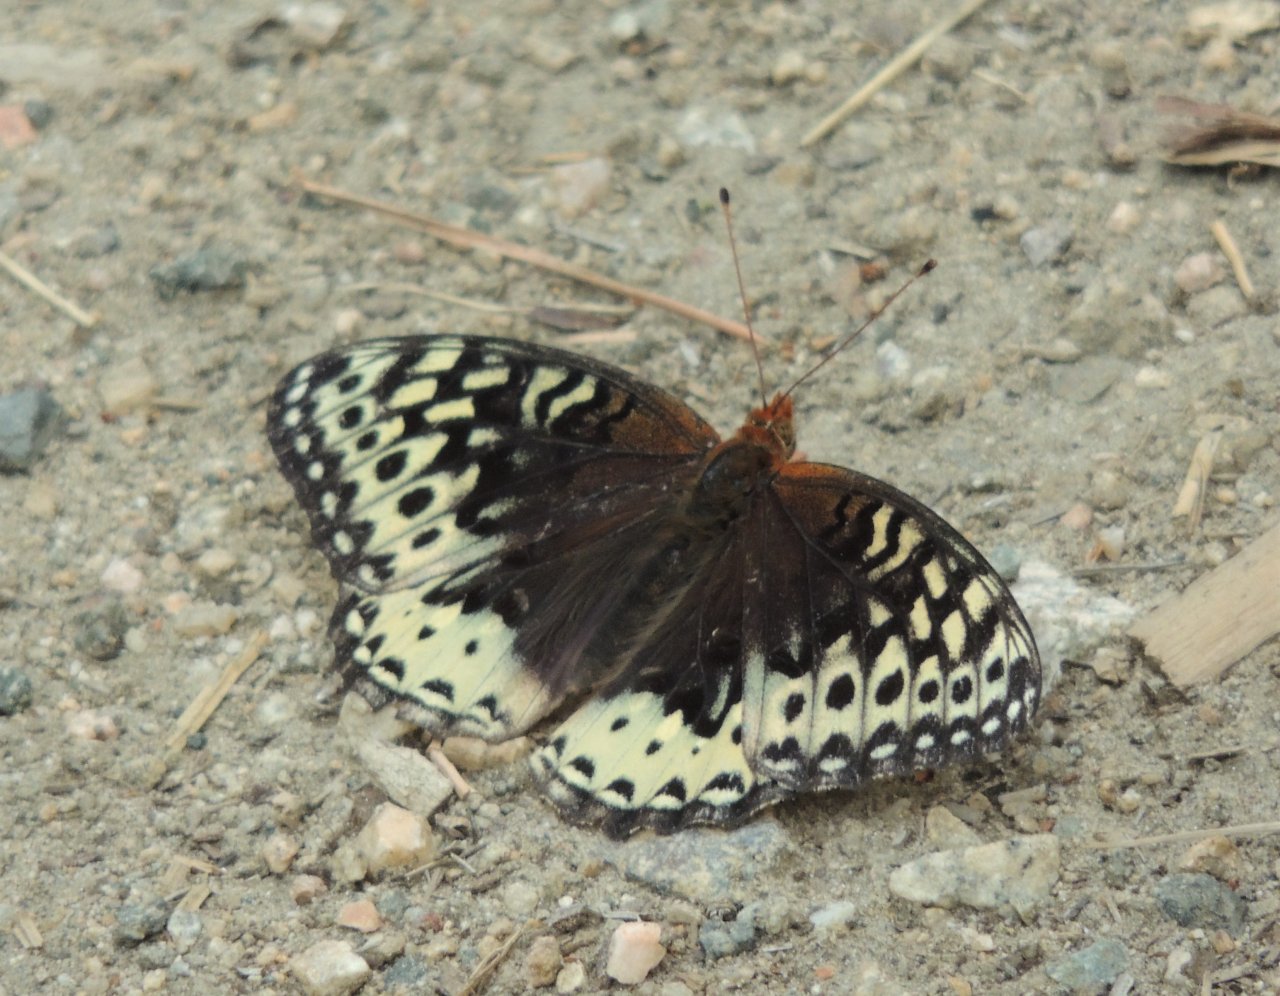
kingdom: Animalia
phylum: Arthropoda
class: Insecta
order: Lepidoptera
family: Nymphalidae
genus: Speyeria
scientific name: Speyeria cybele
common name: Great Spangled Fritillary
